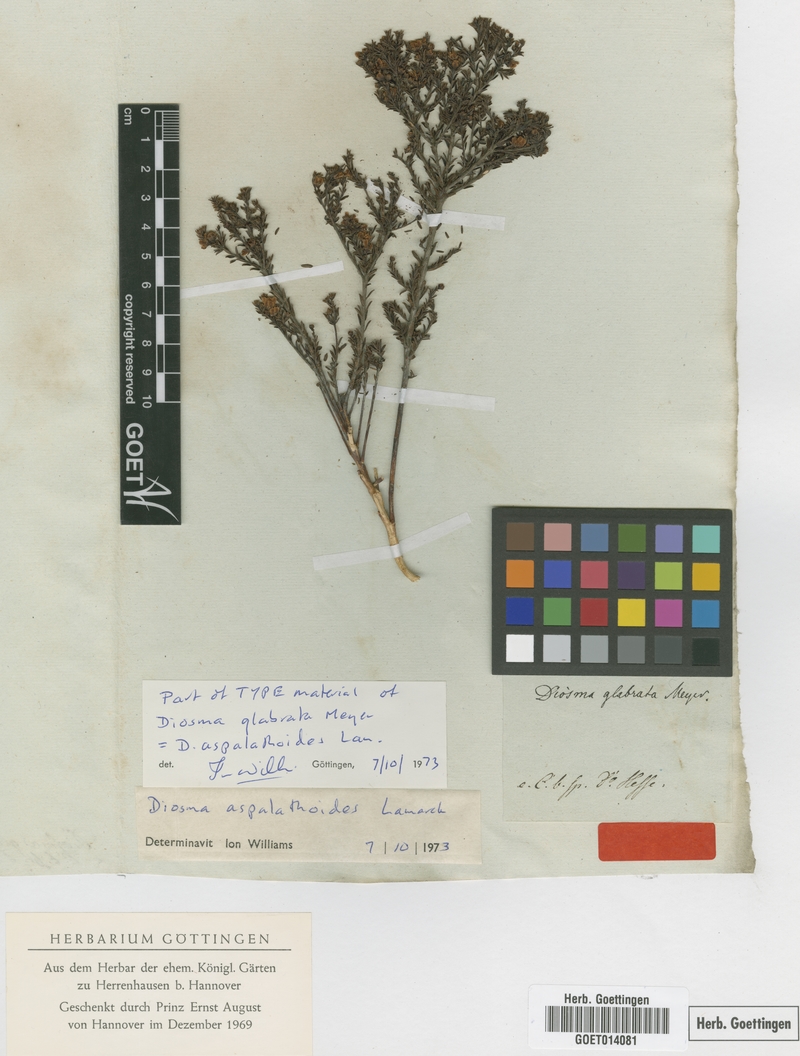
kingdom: Plantae
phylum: Tracheophyta
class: Magnoliopsida
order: Sapindales
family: Rutaceae
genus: Diosma
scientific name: Diosma aspalathoides
